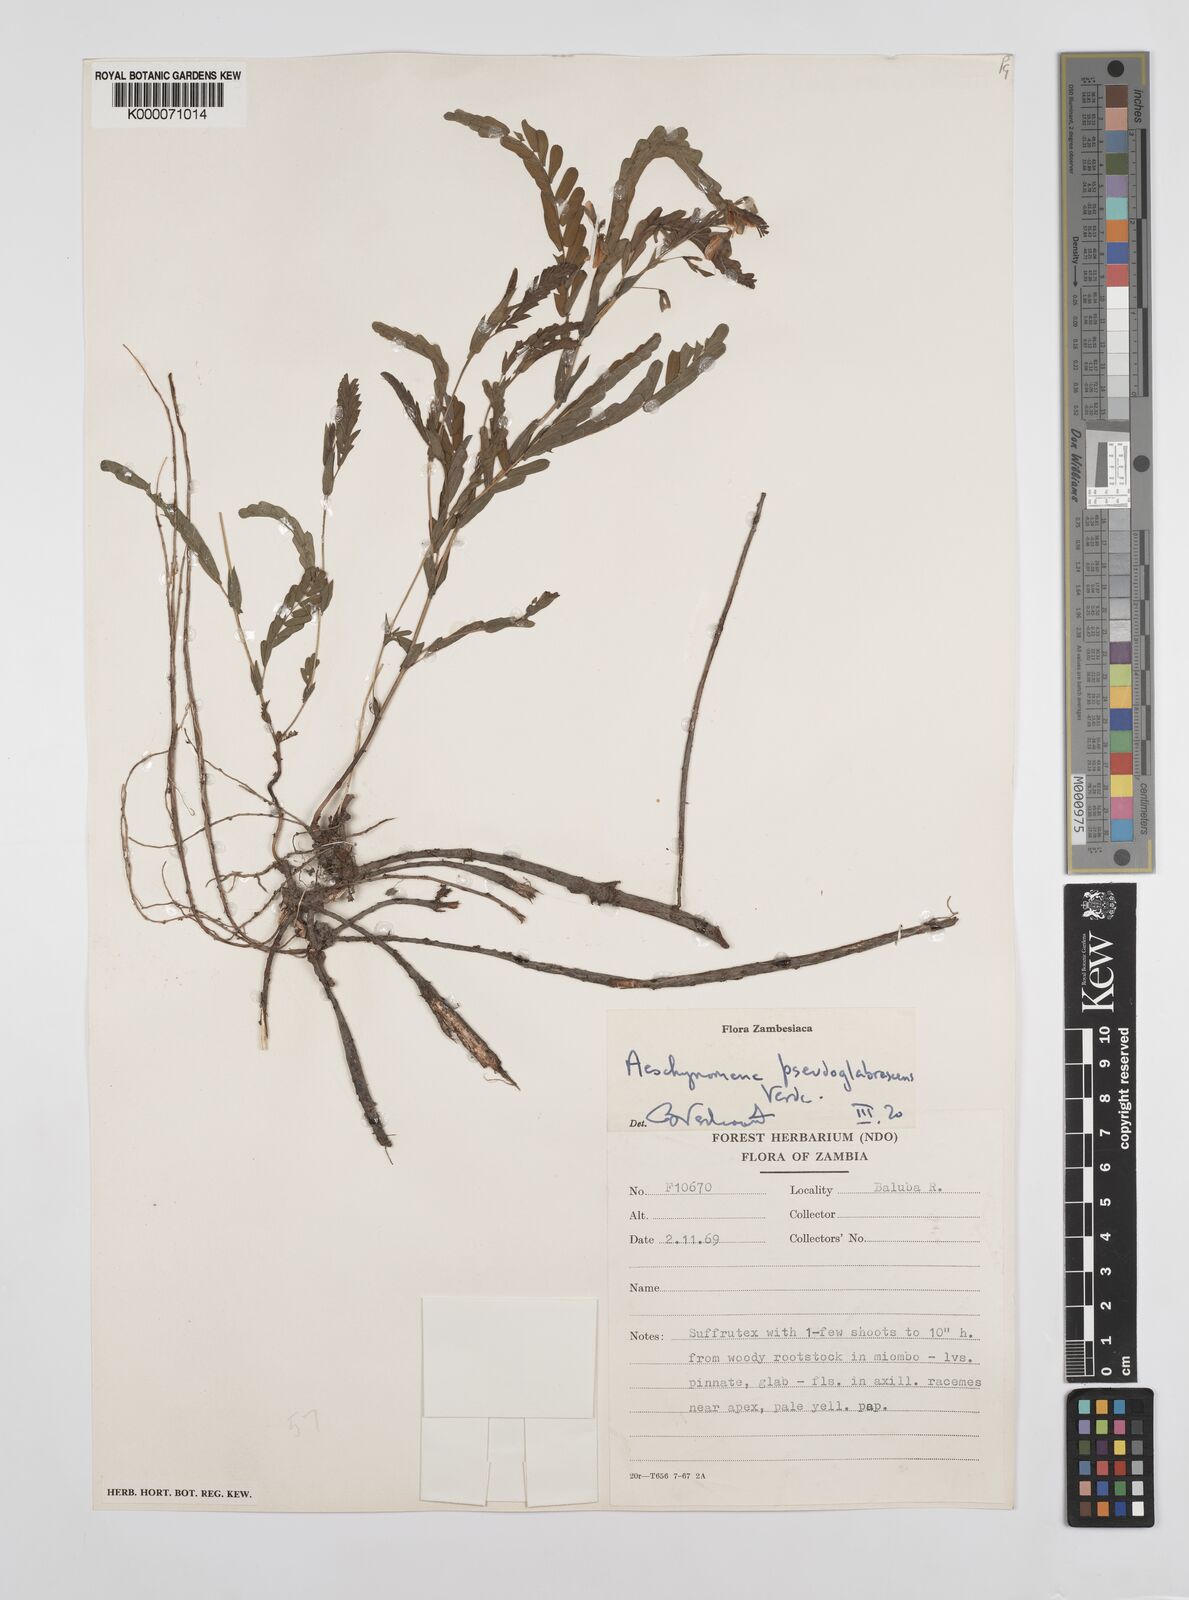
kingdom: Plantae
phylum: Tracheophyta
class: Magnoliopsida
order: Fabales
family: Fabaceae
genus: Aeschynomene
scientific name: Aeschynomene pseudoglabrescens
